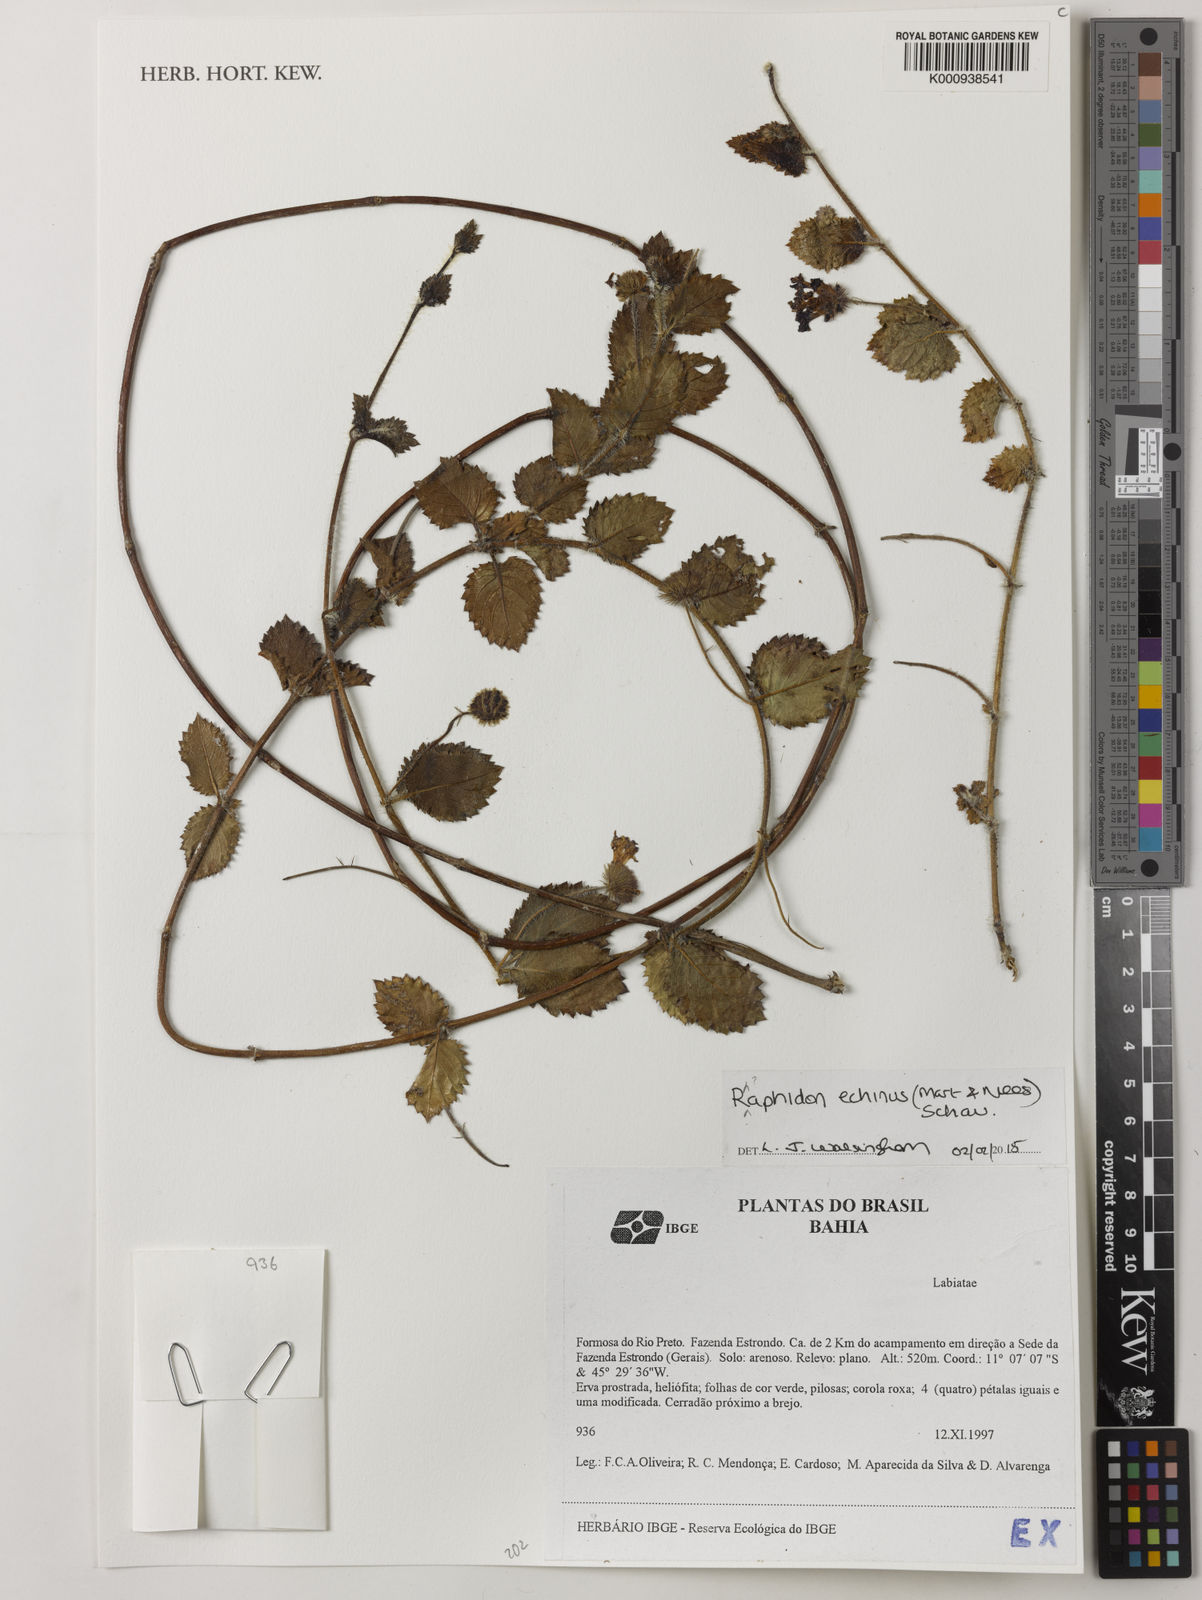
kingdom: Plantae
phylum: Tracheophyta
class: Magnoliopsida
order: Lamiales
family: Lamiaceae
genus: Rhaphiodon
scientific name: Rhaphiodon
